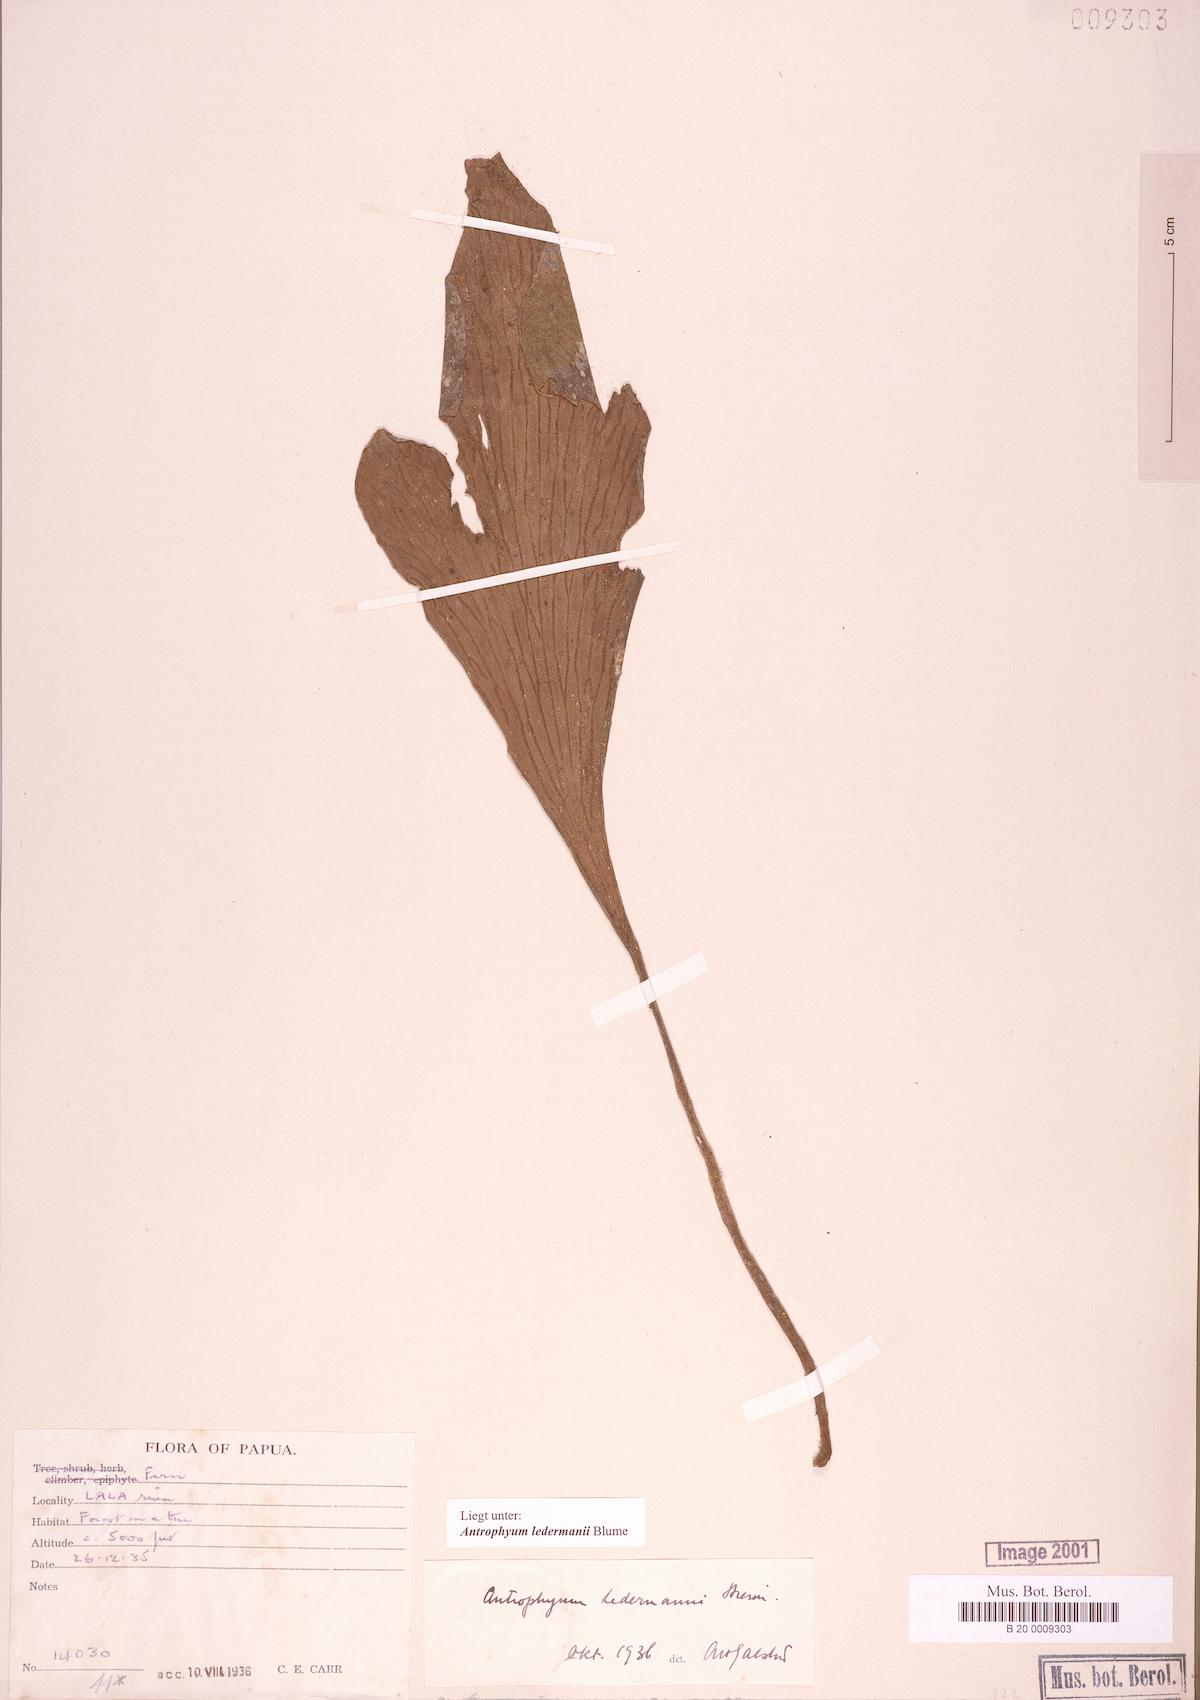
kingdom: Plantae
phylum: Tracheophyta
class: Polypodiopsida
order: Polypodiales
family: Pteridaceae
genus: Antrophyum
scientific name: Antrophyum ledermannii
